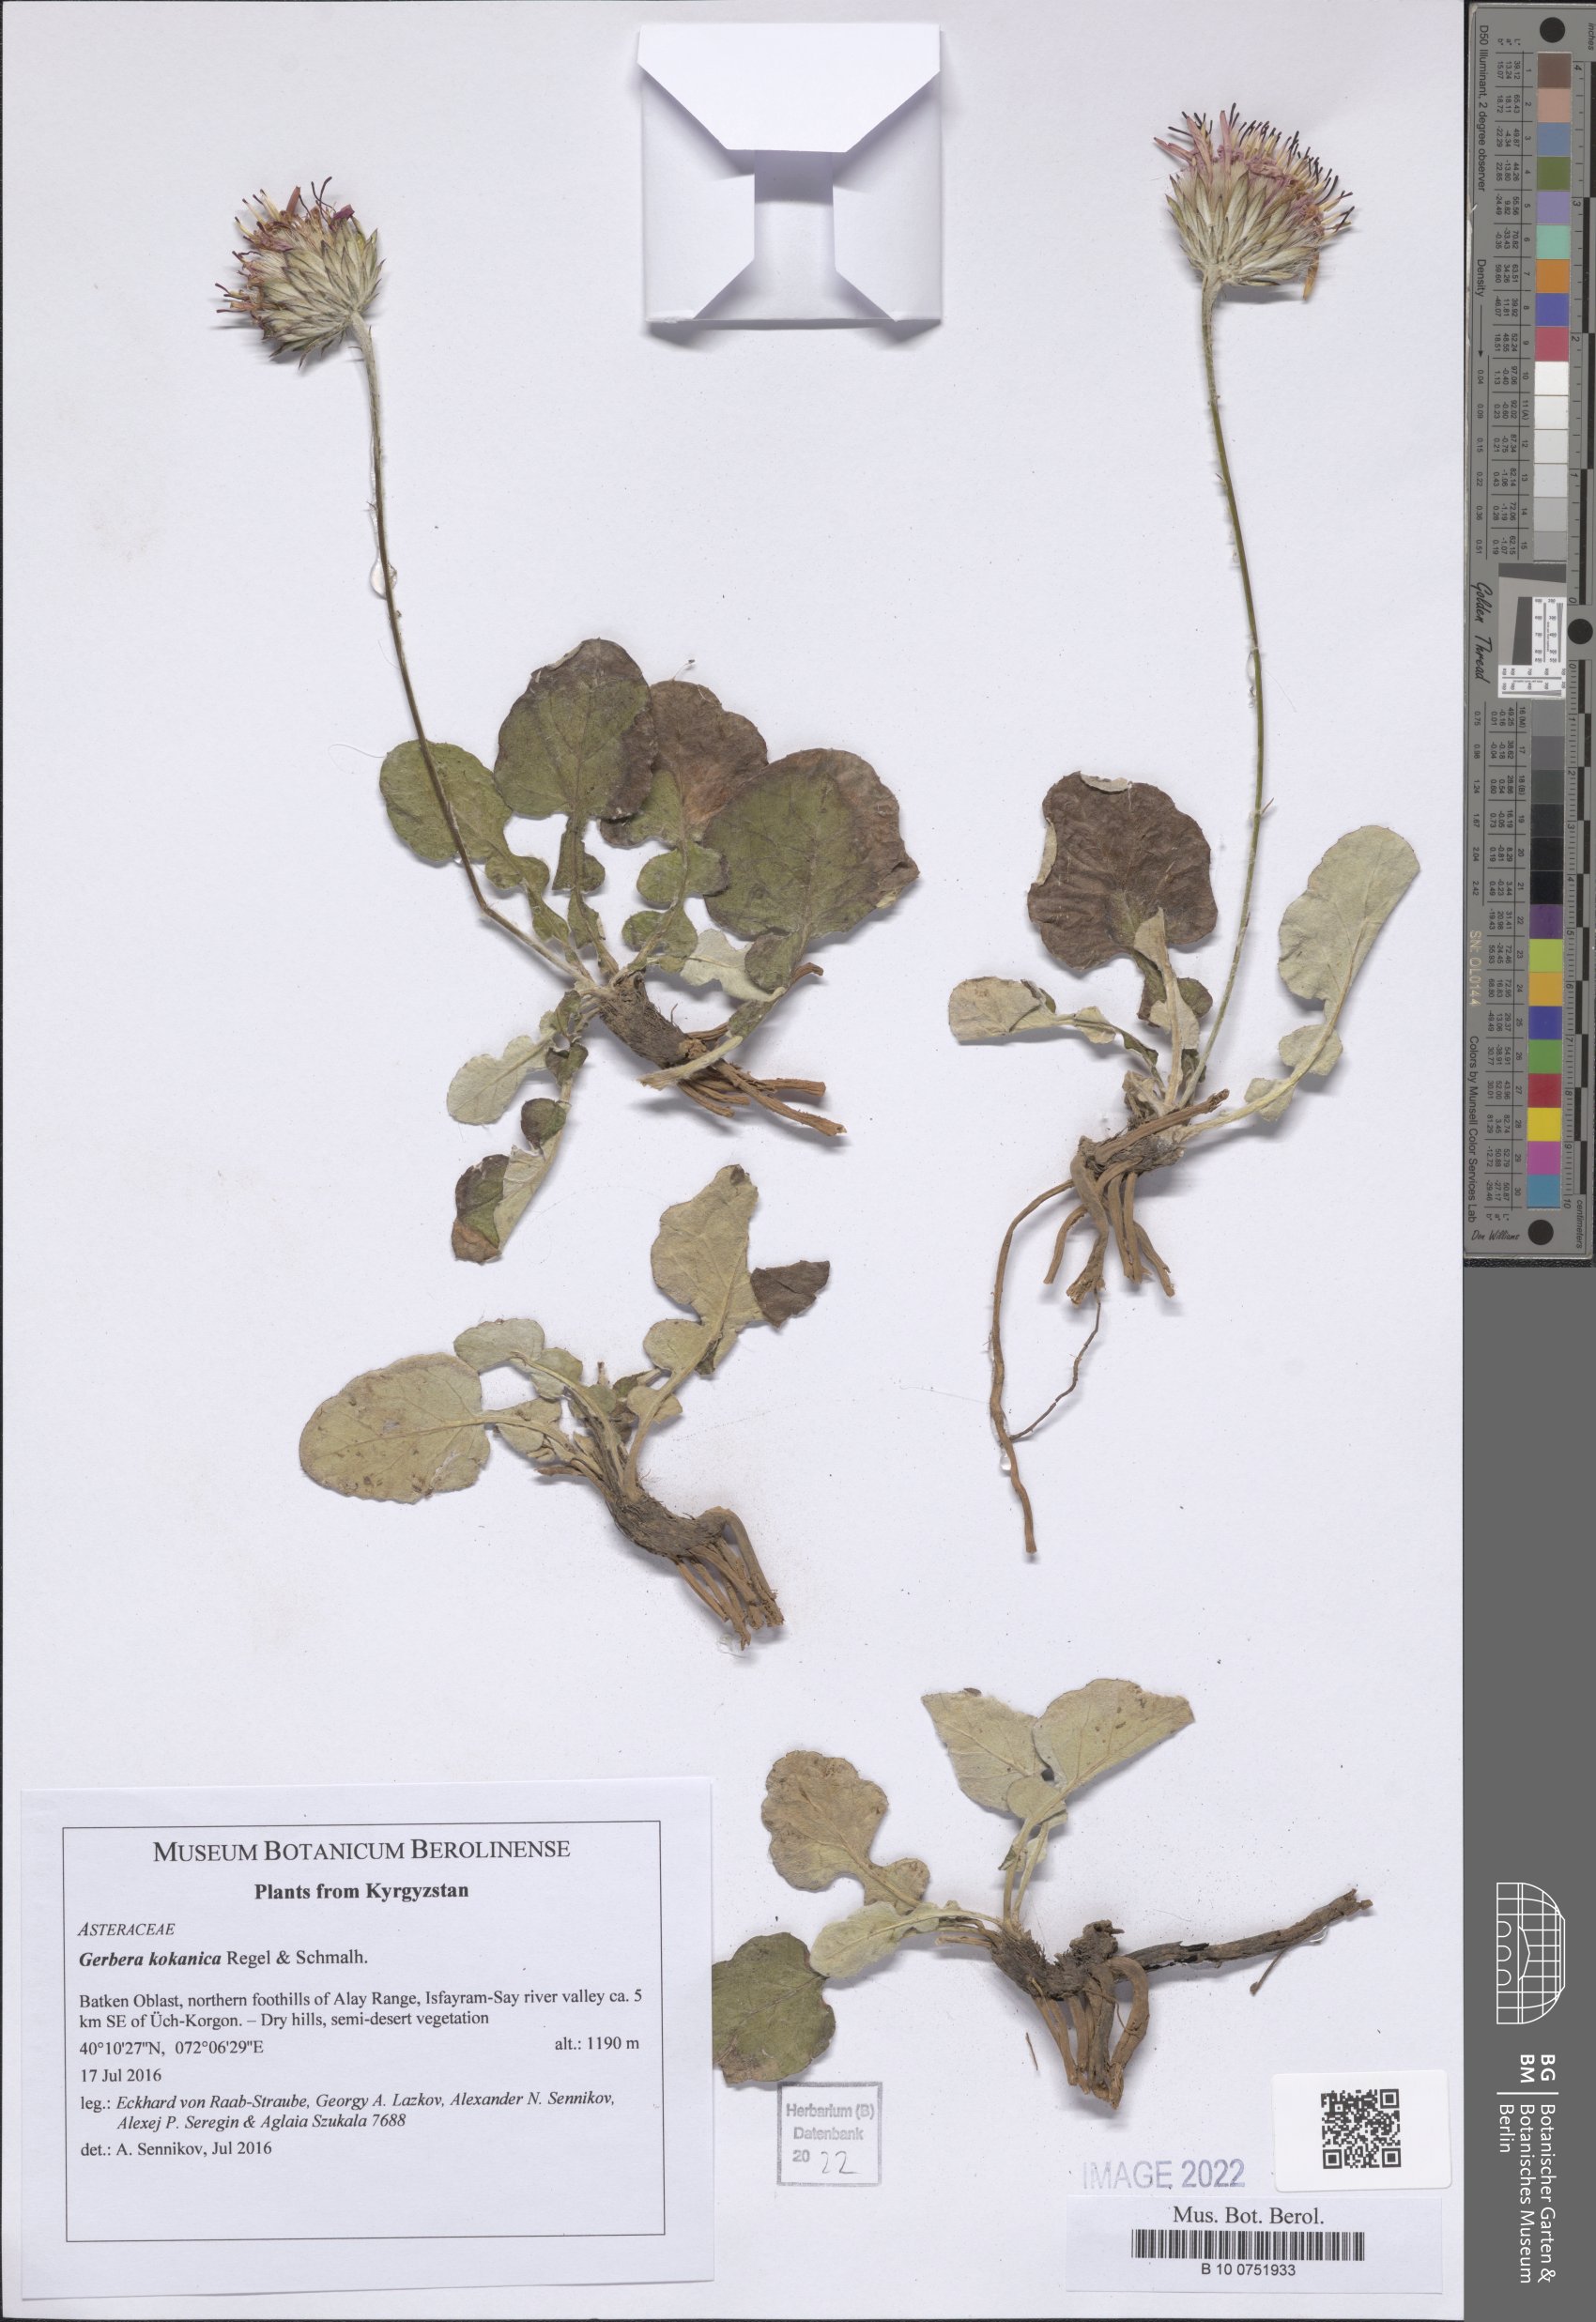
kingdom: Plantae
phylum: Tracheophyta
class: Magnoliopsida
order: Asterales
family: Asteraceae
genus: Oreoseris
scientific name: Oreoseris kokanica
